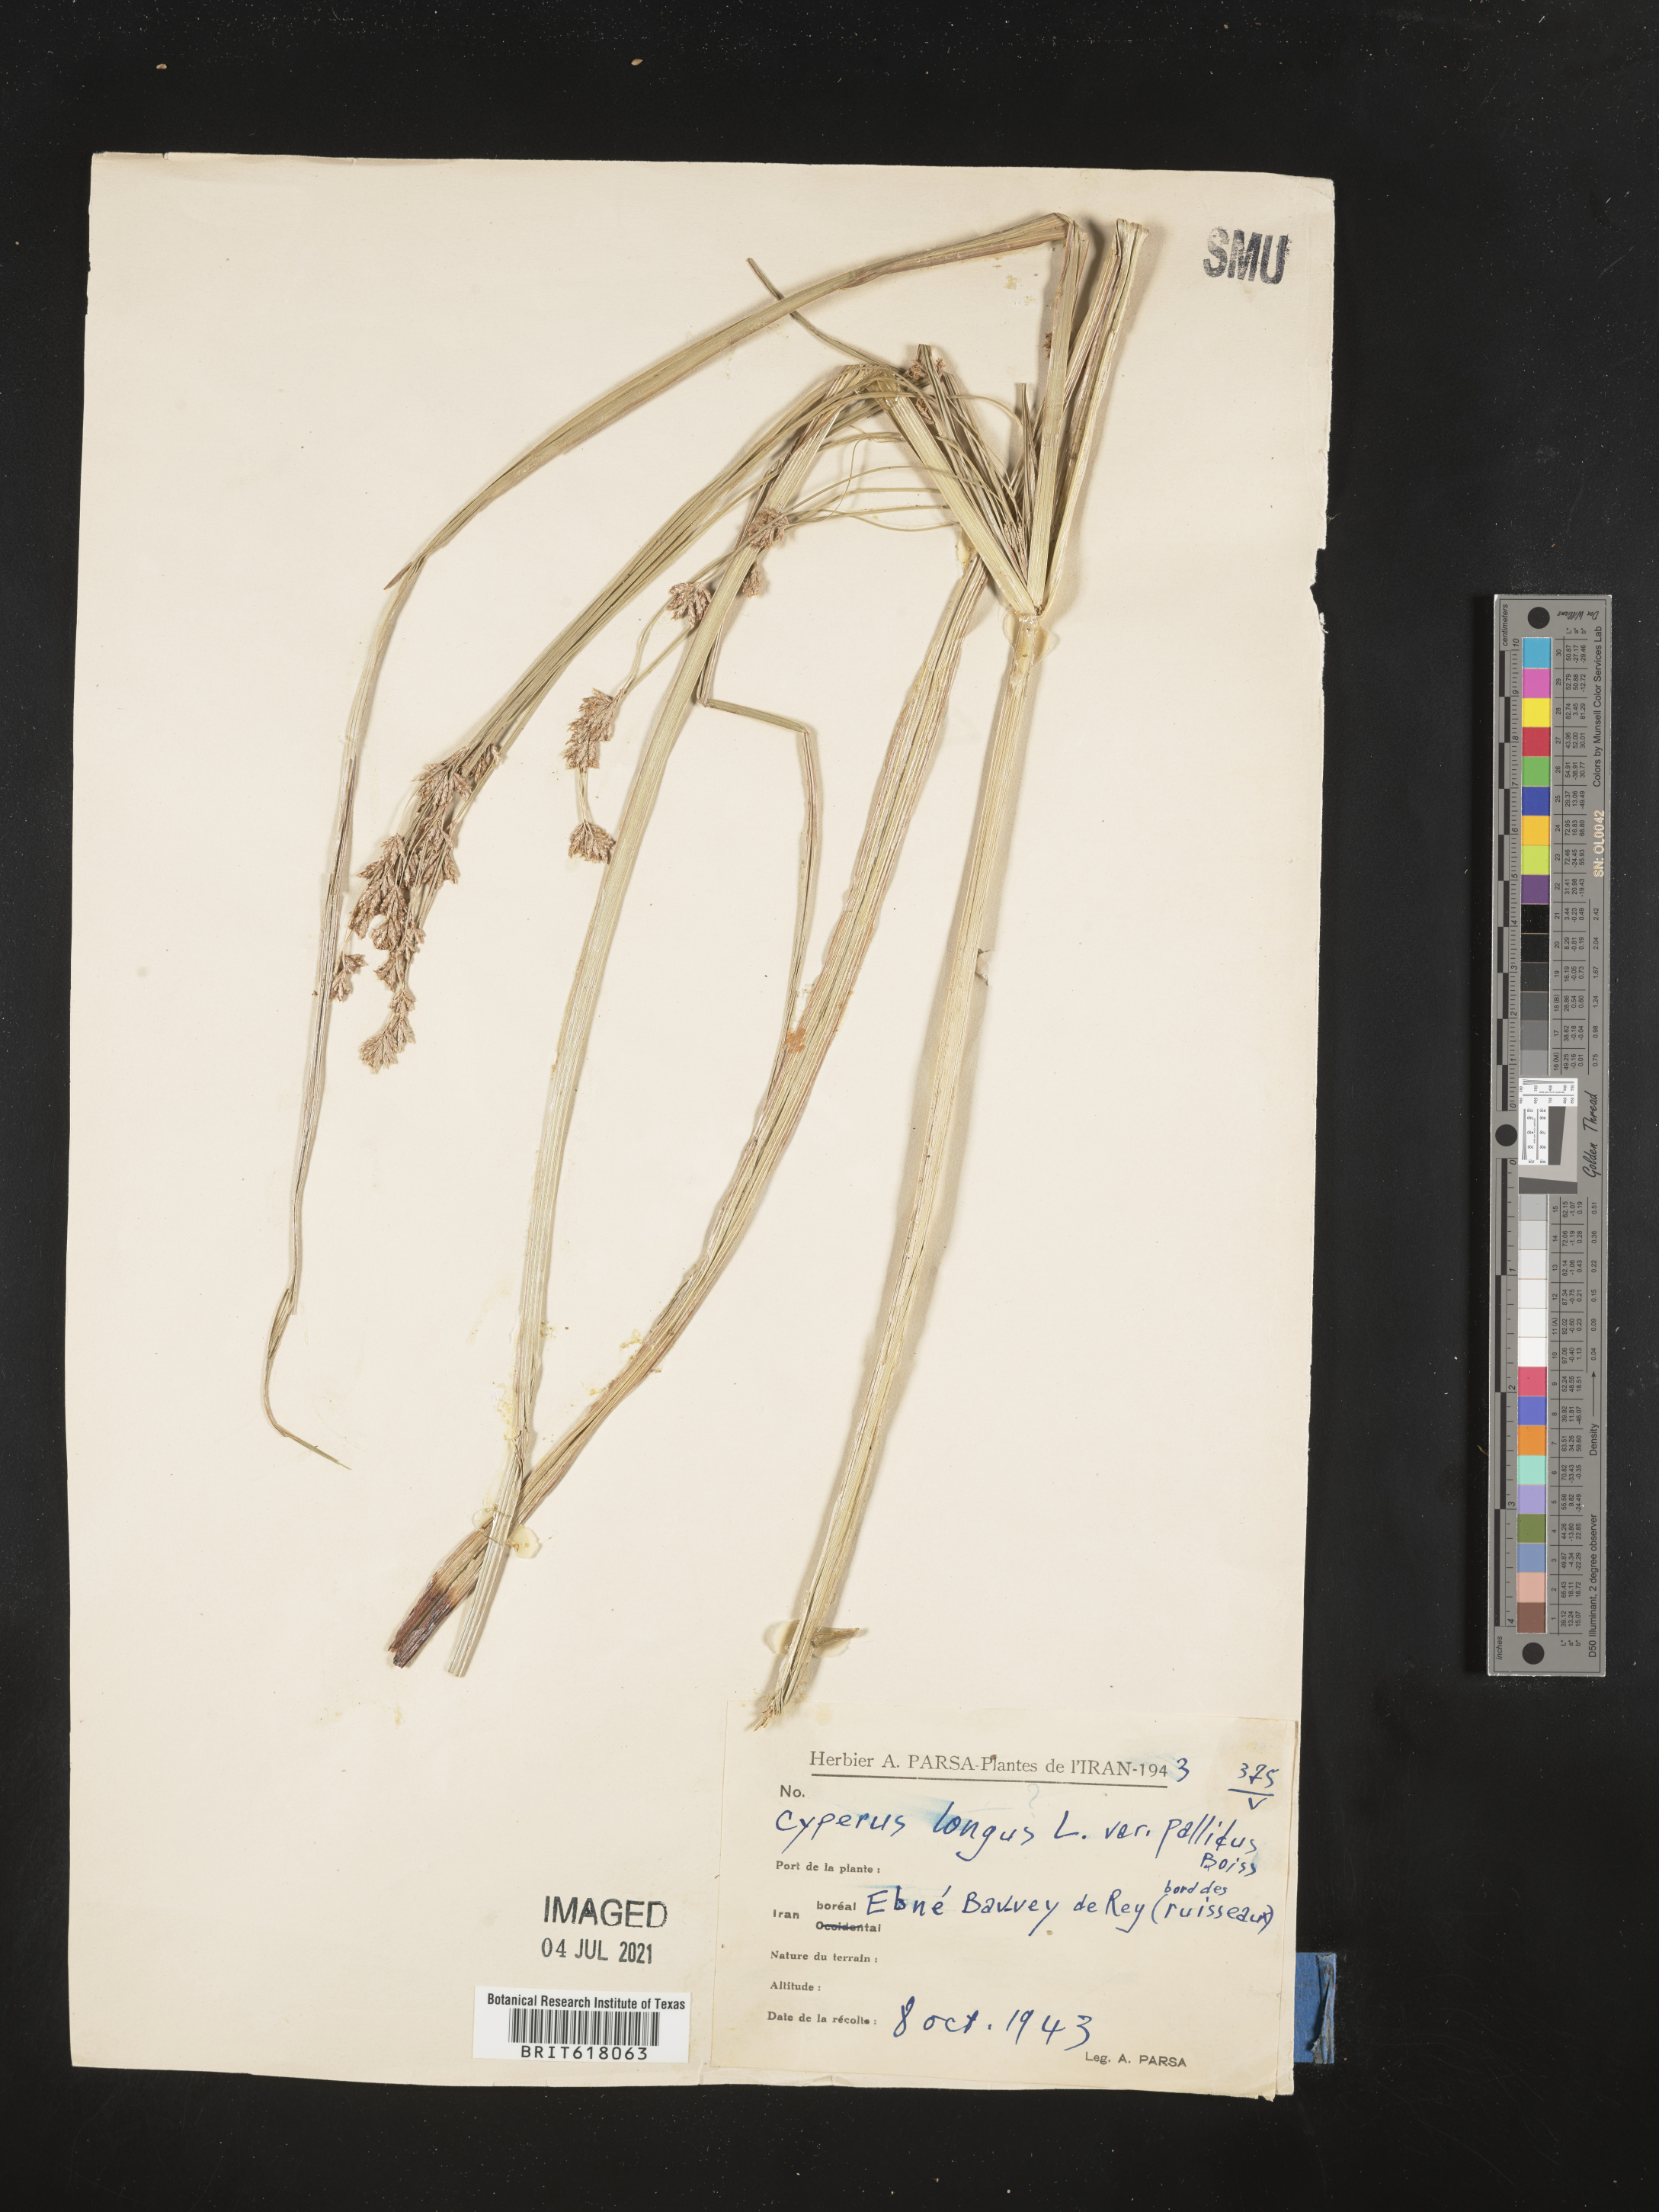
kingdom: Plantae
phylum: Tracheophyta
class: Liliopsida
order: Poales
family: Cyperaceae
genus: Cyperus
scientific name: Cyperus longus
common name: Galingale
